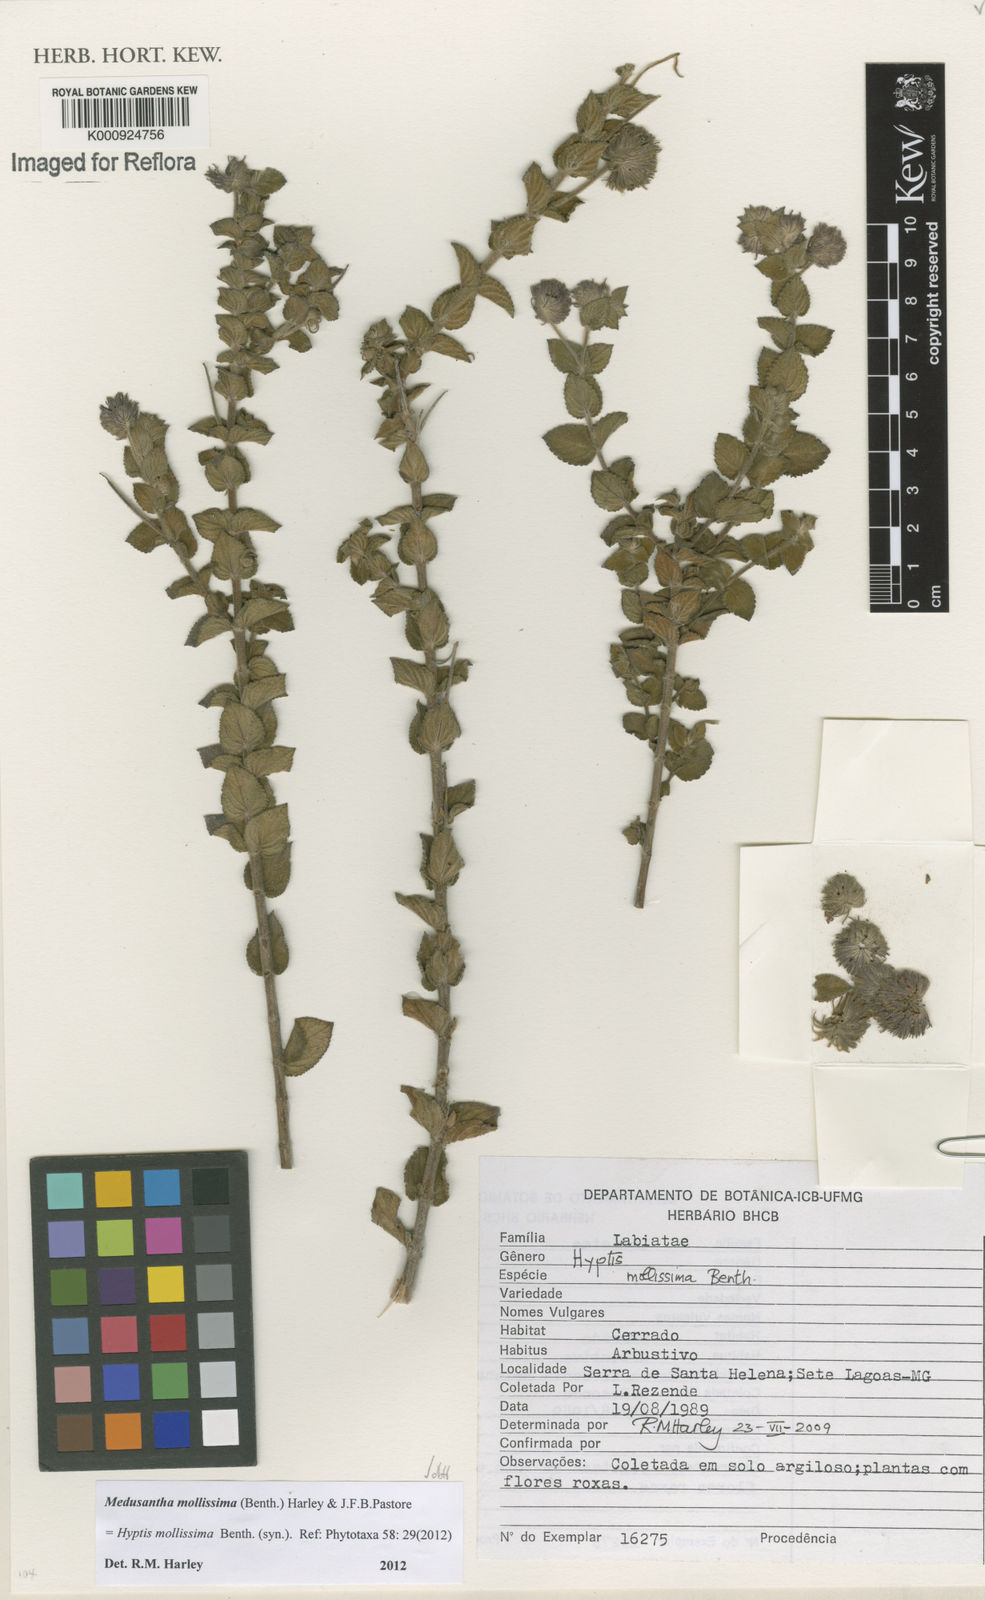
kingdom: Plantae
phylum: Tracheophyta
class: Magnoliopsida
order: Lamiales
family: Lamiaceae
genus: Medusantha
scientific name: Medusantha mollissima
